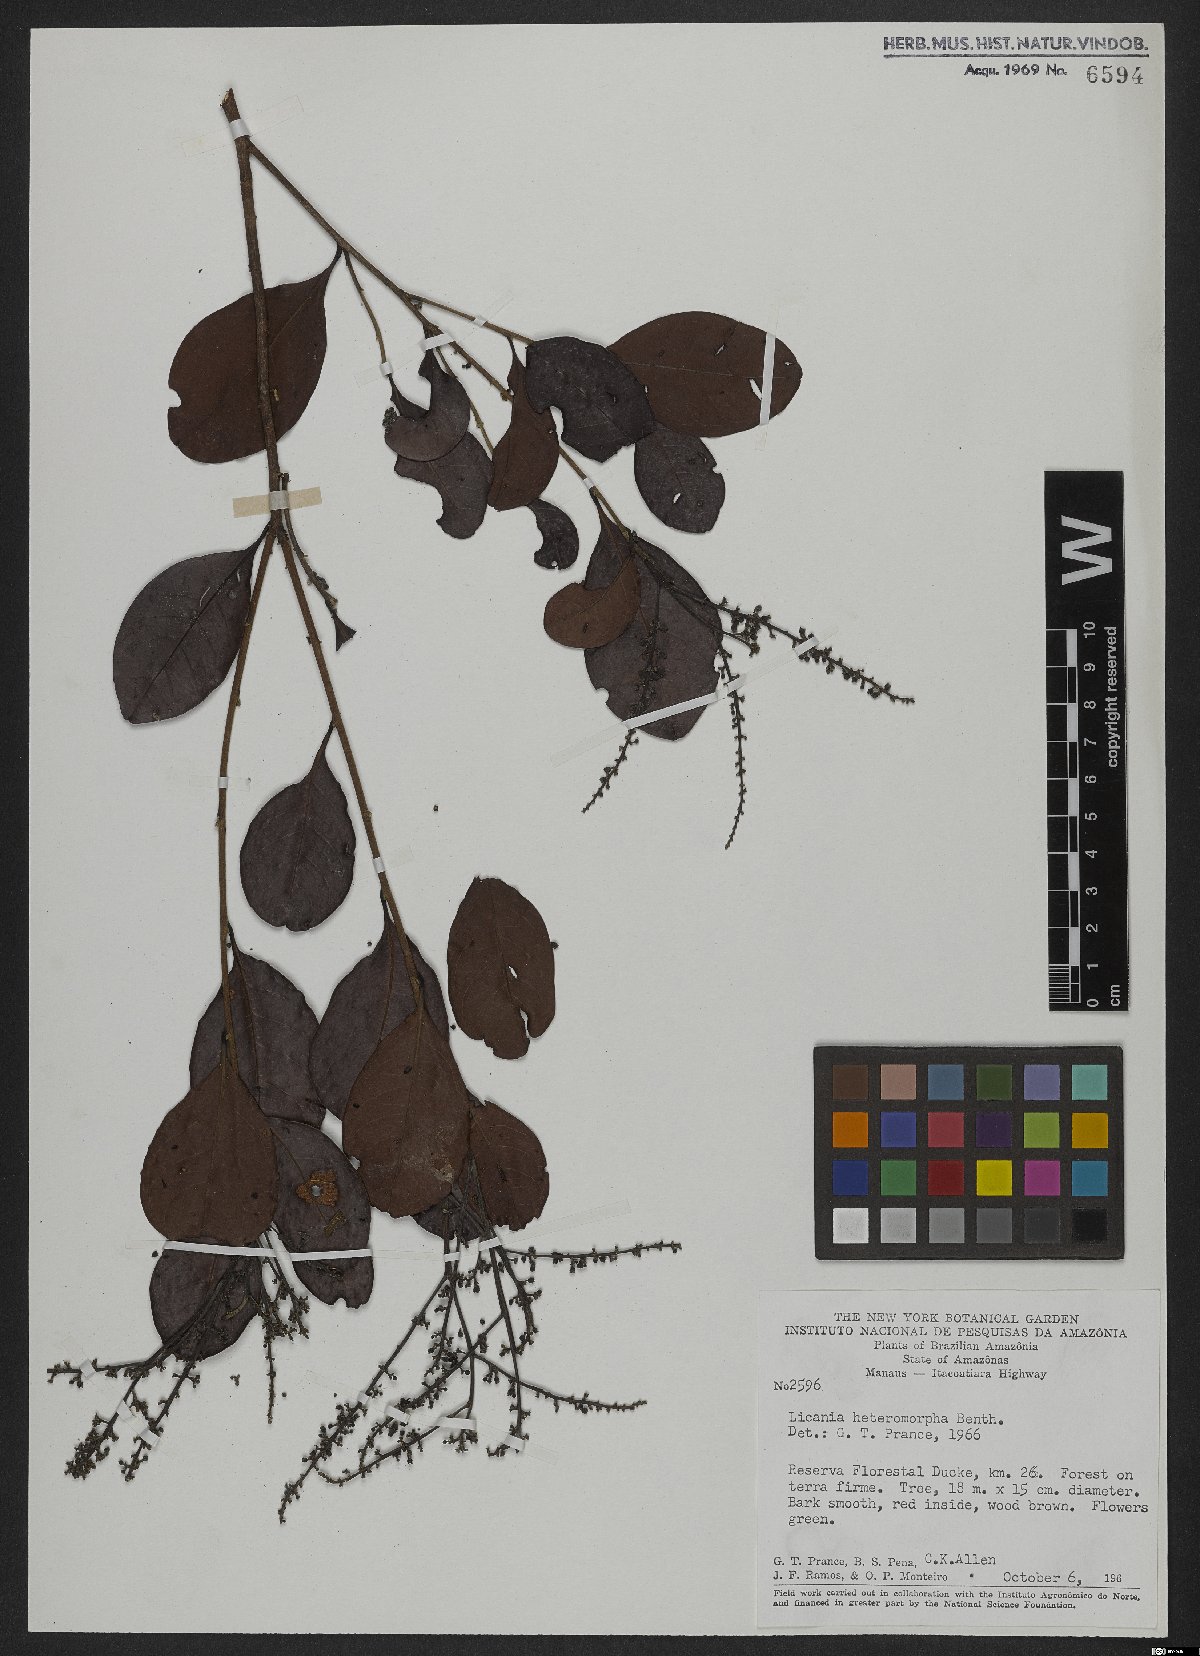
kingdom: Plantae
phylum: Tracheophyta
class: Magnoliopsida
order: Malpighiales
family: Chrysobalanaceae
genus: Hymenopus
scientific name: Hymenopus heteromorphus
